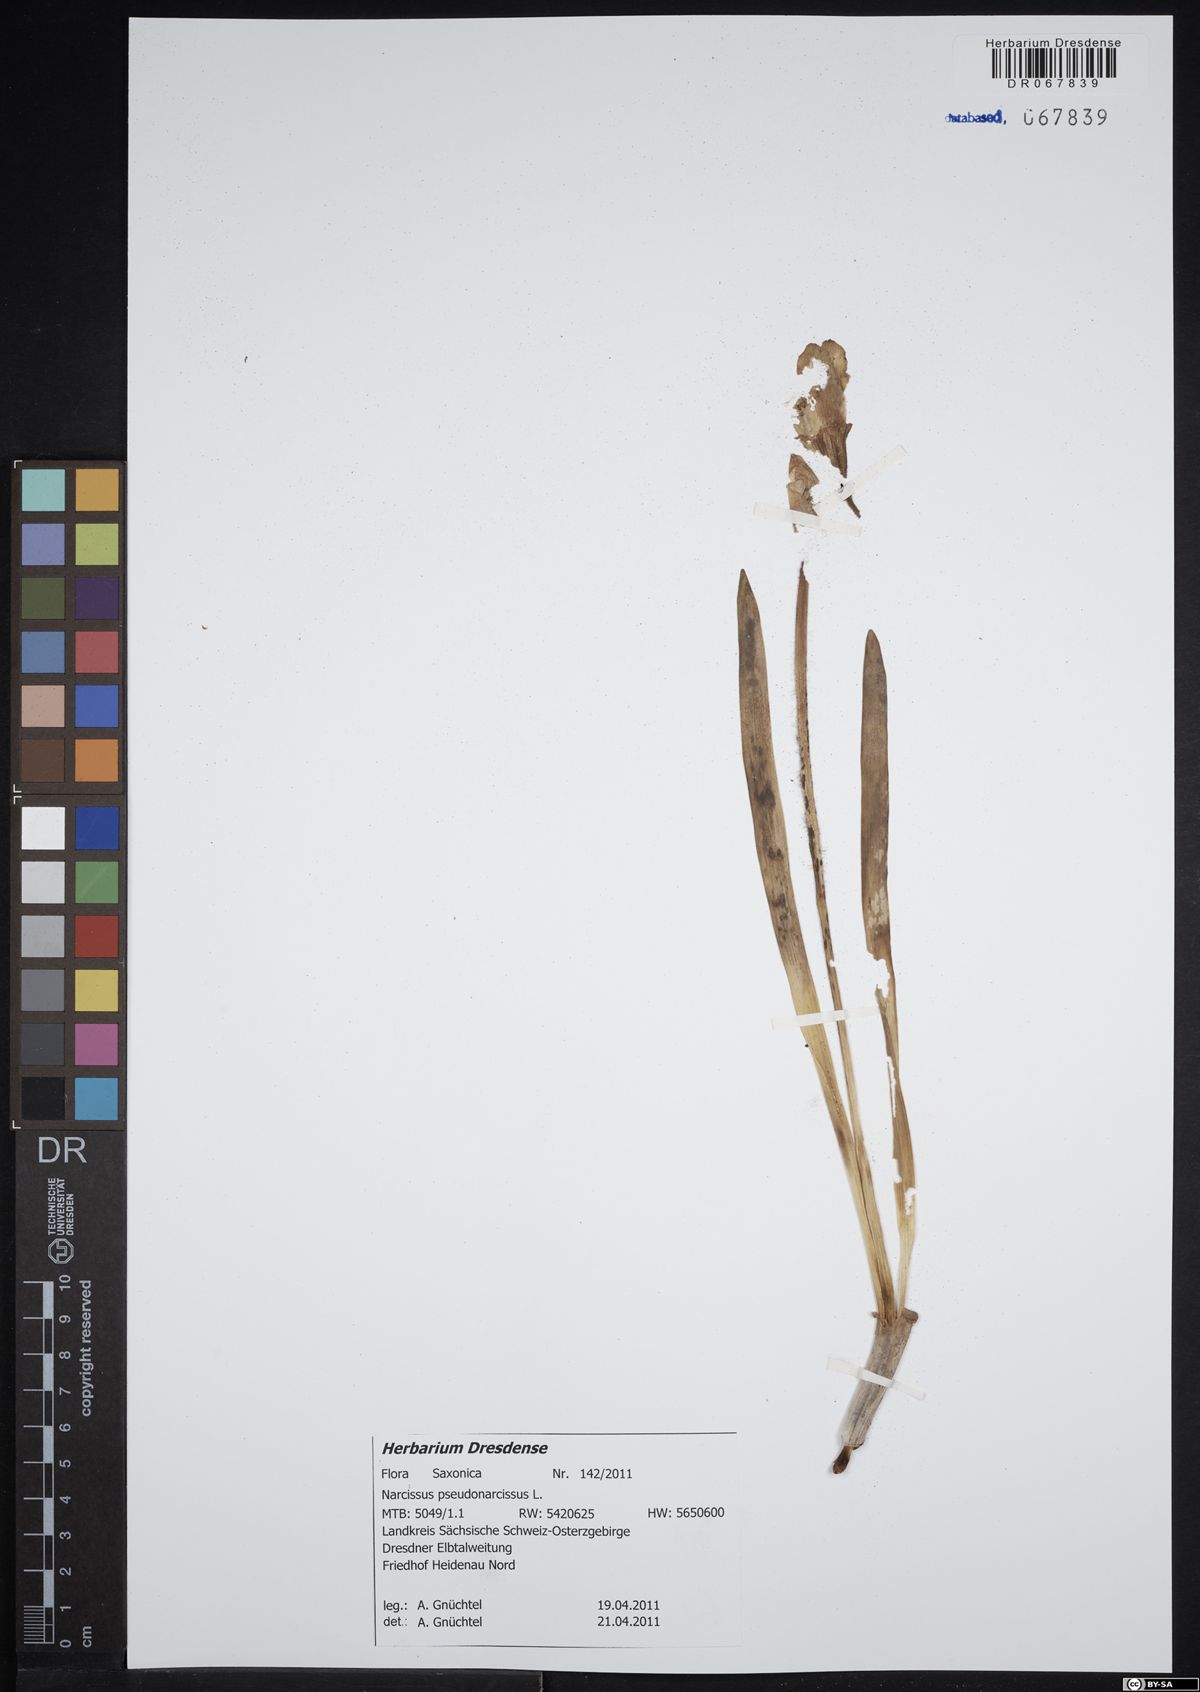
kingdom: Plantae
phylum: Tracheophyta
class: Liliopsida
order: Asparagales
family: Amaryllidaceae
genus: Narcissus
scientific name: Narcissus pseudonarcissus
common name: Daffodil
